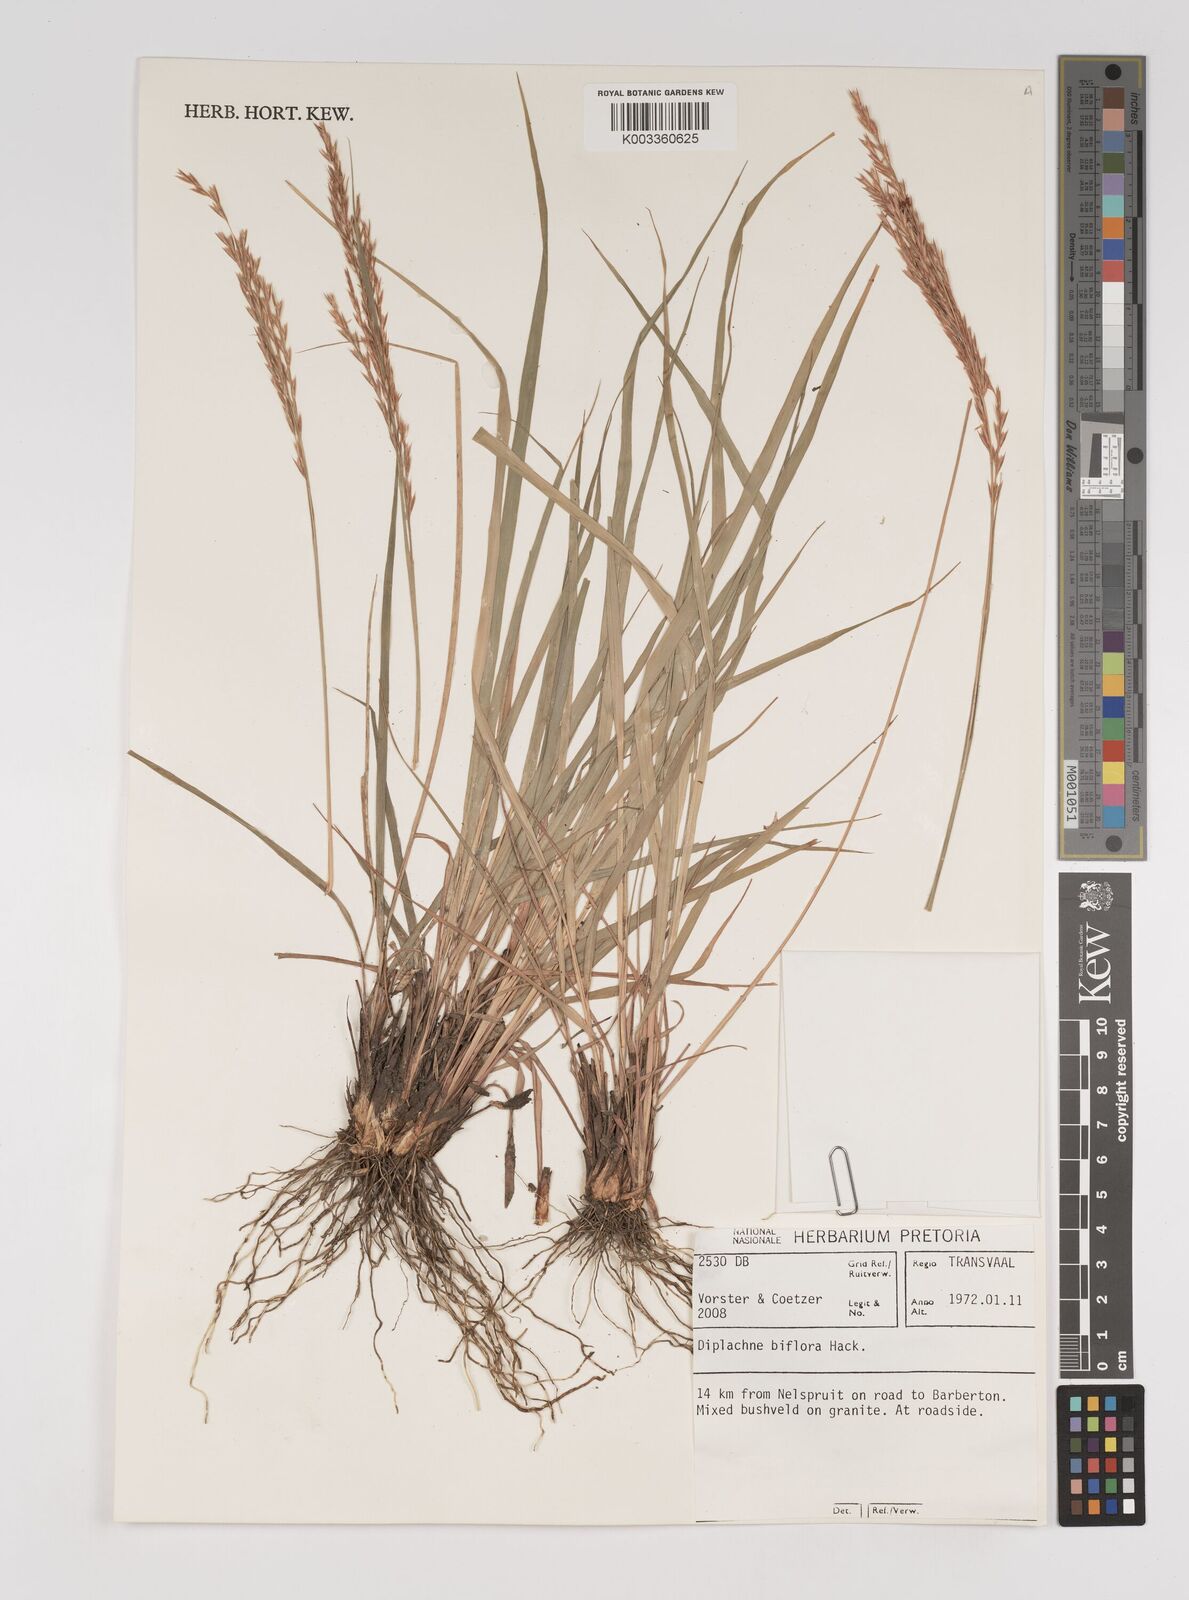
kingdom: Plantae
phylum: Tracheophyta
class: Liliopsida
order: Poales
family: Poaceae
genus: Bewsia
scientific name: Bewsia biflora
